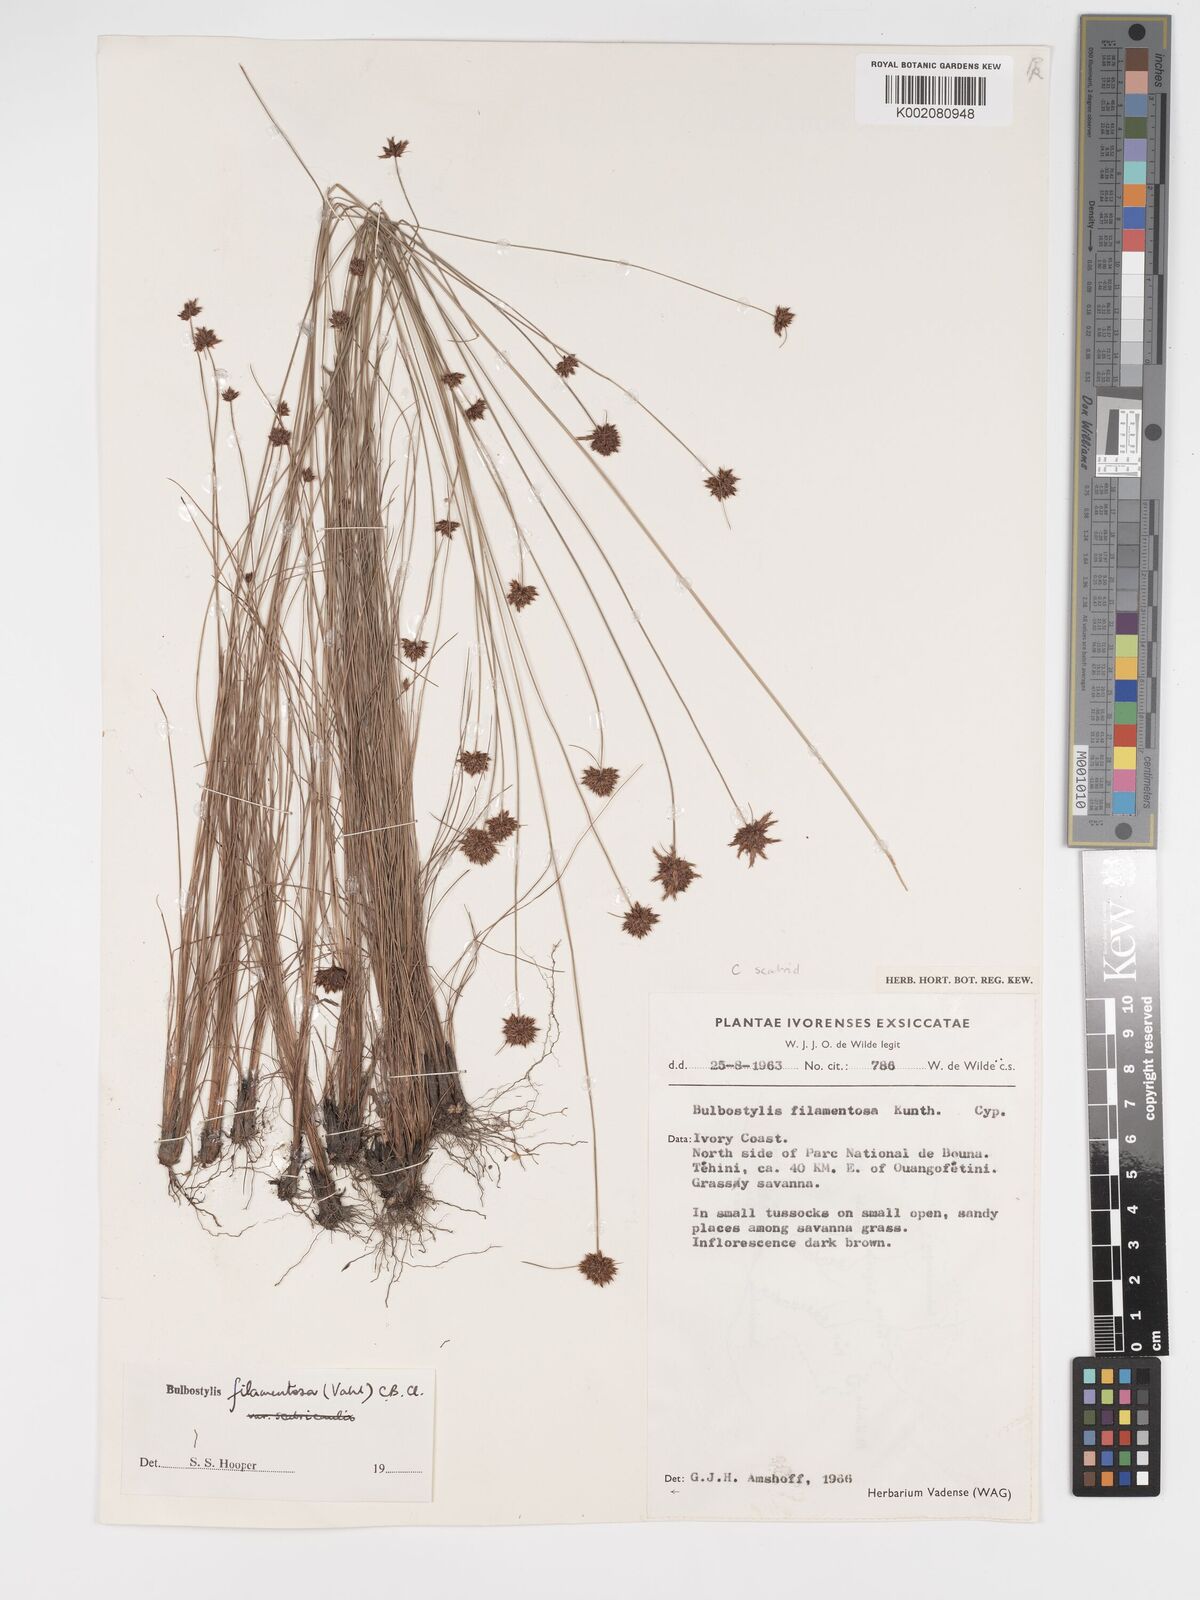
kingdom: Plantae
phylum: Tracheophyta
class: Liliopsida
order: Poales
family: Cyperaceae
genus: Bulbostylis
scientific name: Bulbostylis filamentosa
